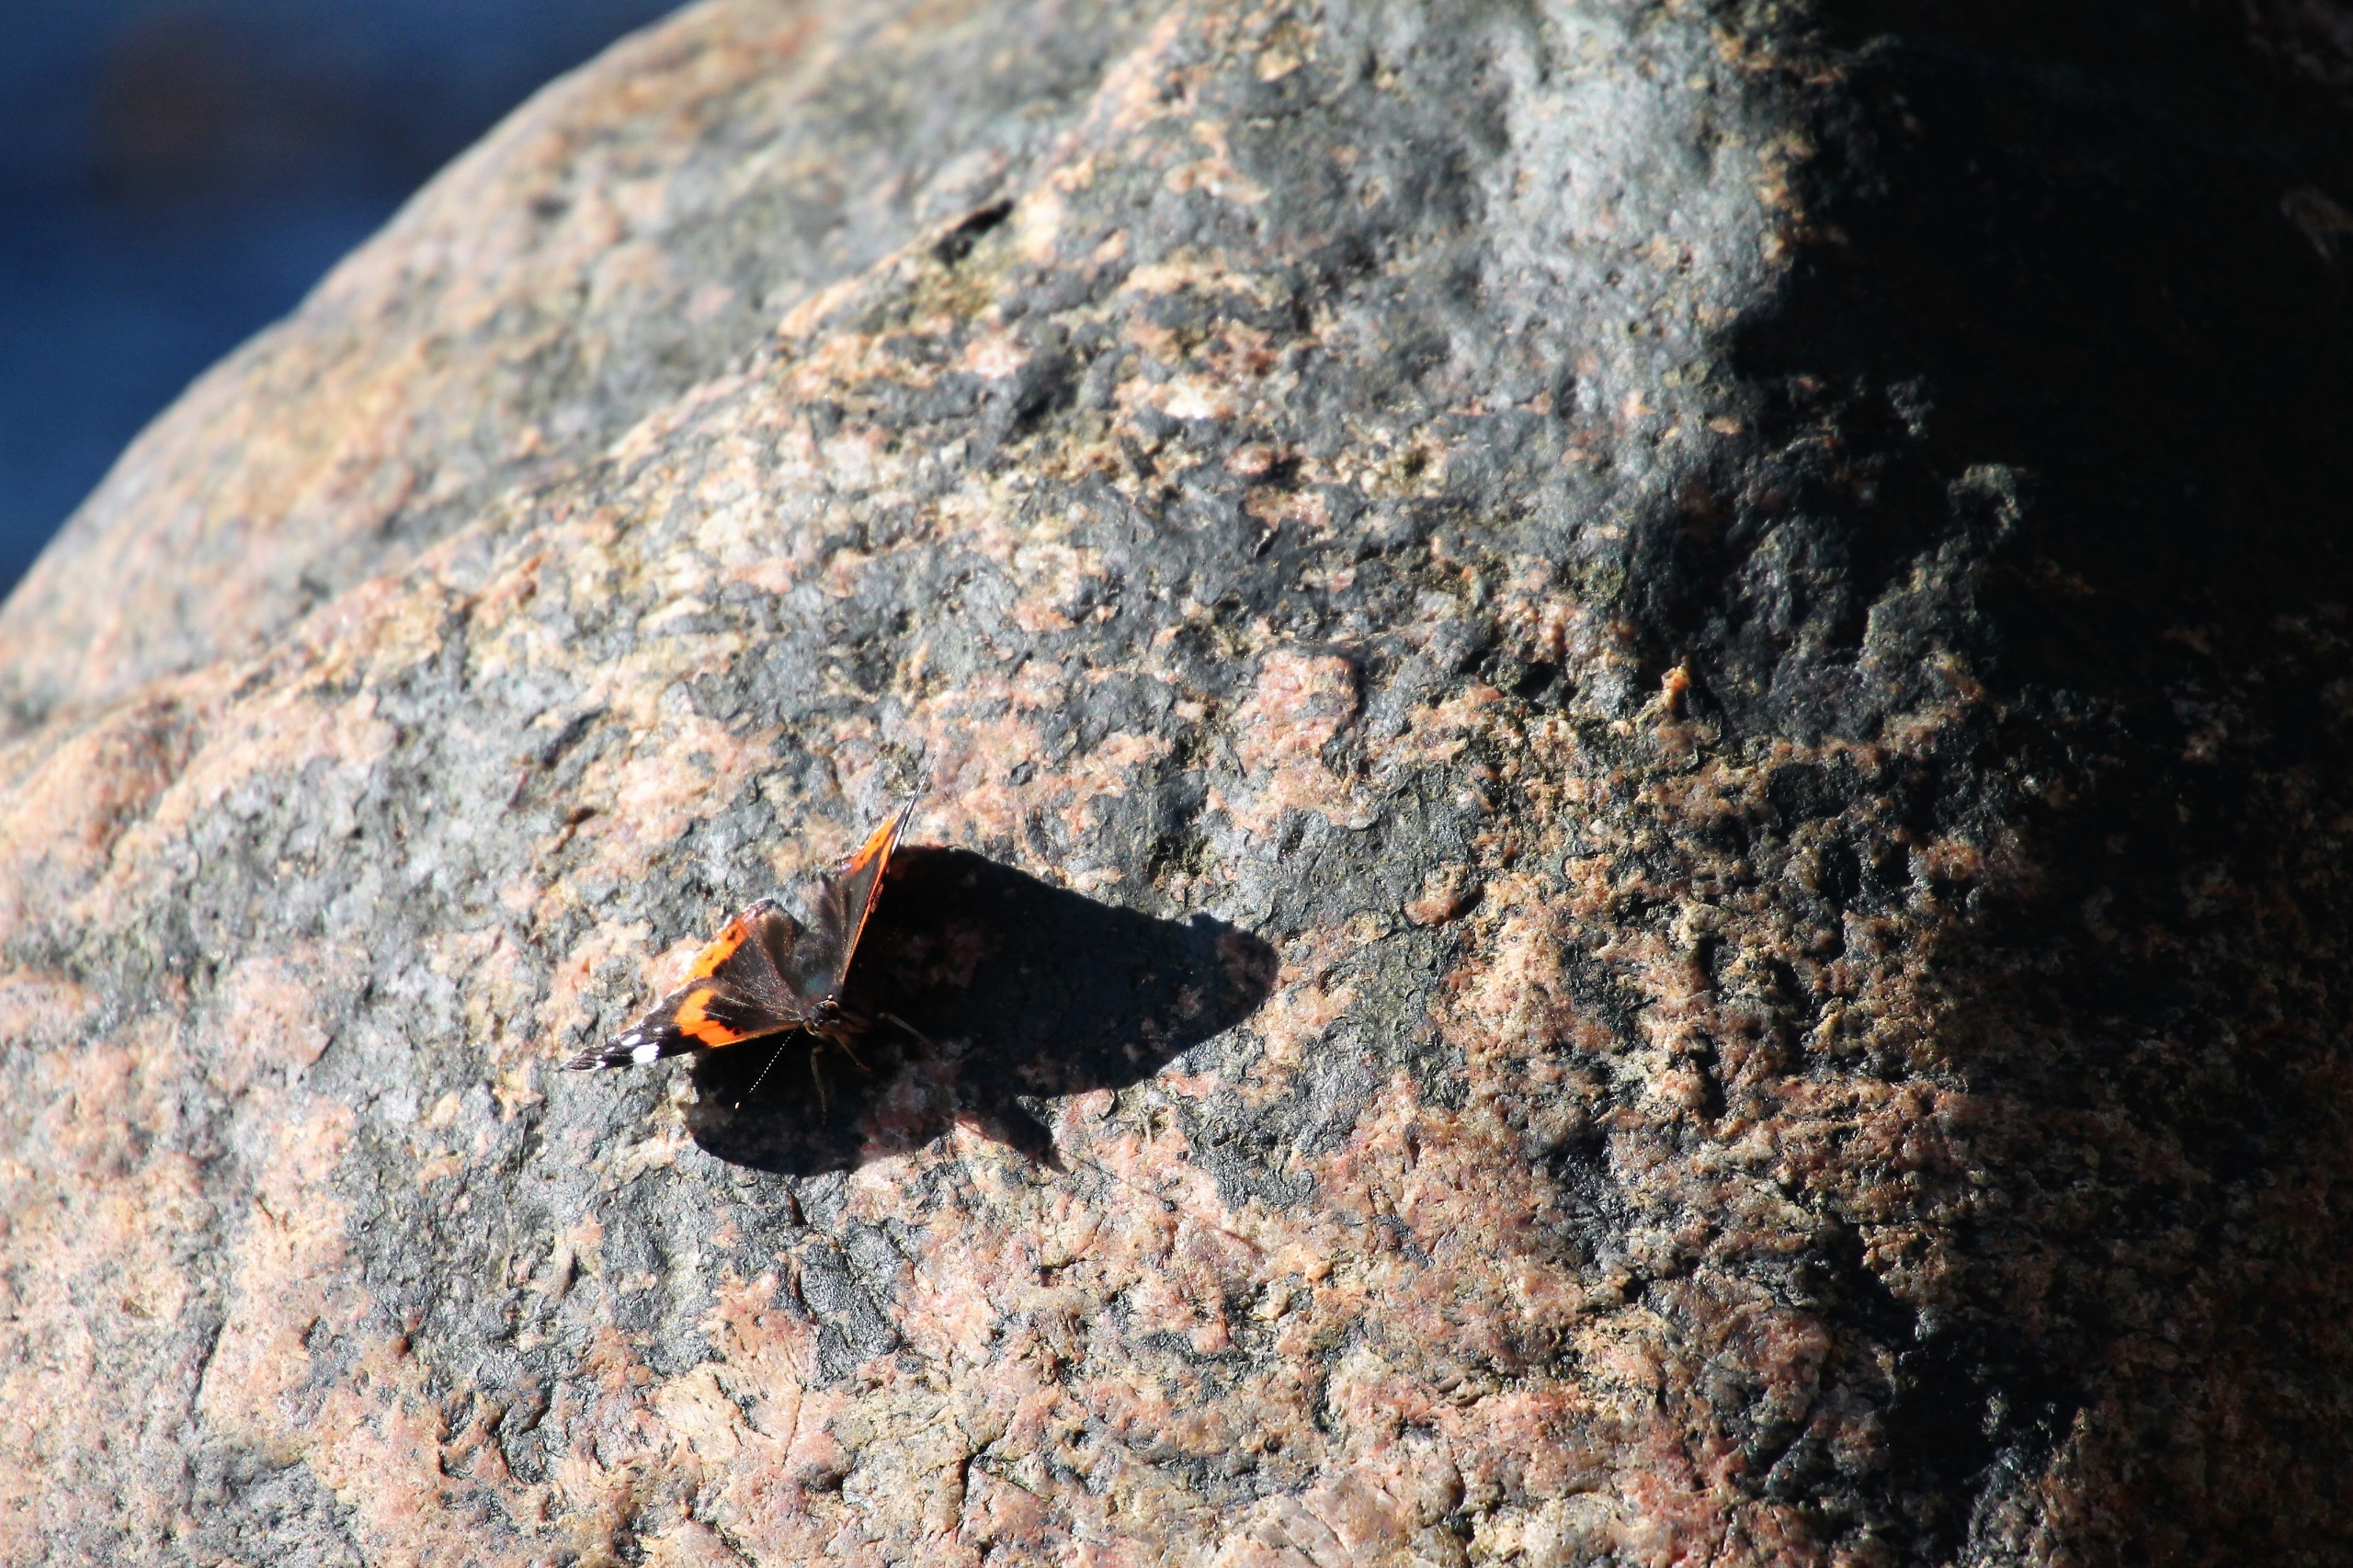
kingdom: Animalia
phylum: Arthropoda
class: Insecta
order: Lepidoptera
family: Nymphalidae
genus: Vanessa
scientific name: Vanessa atalanta
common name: Admiral
